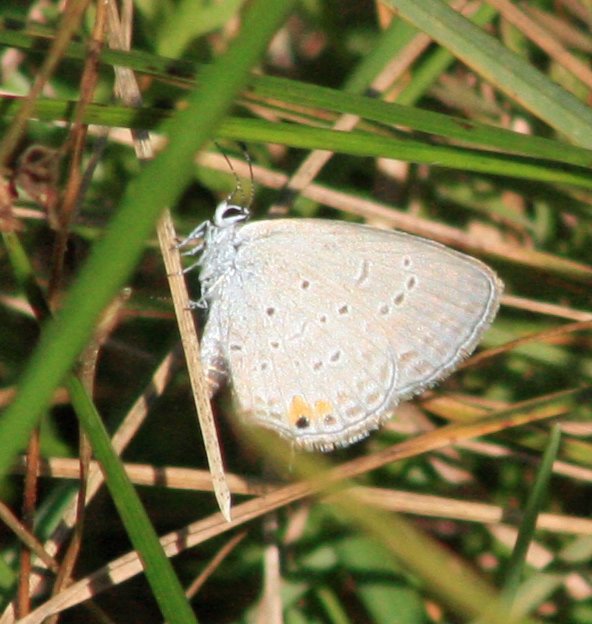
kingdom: Animalia
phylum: Arthropoda
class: Insecta
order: Lepidoptera
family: Lycaenidae
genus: Elkalyce
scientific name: Elkalyce comyntas
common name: Eastern Tailed-Blue
